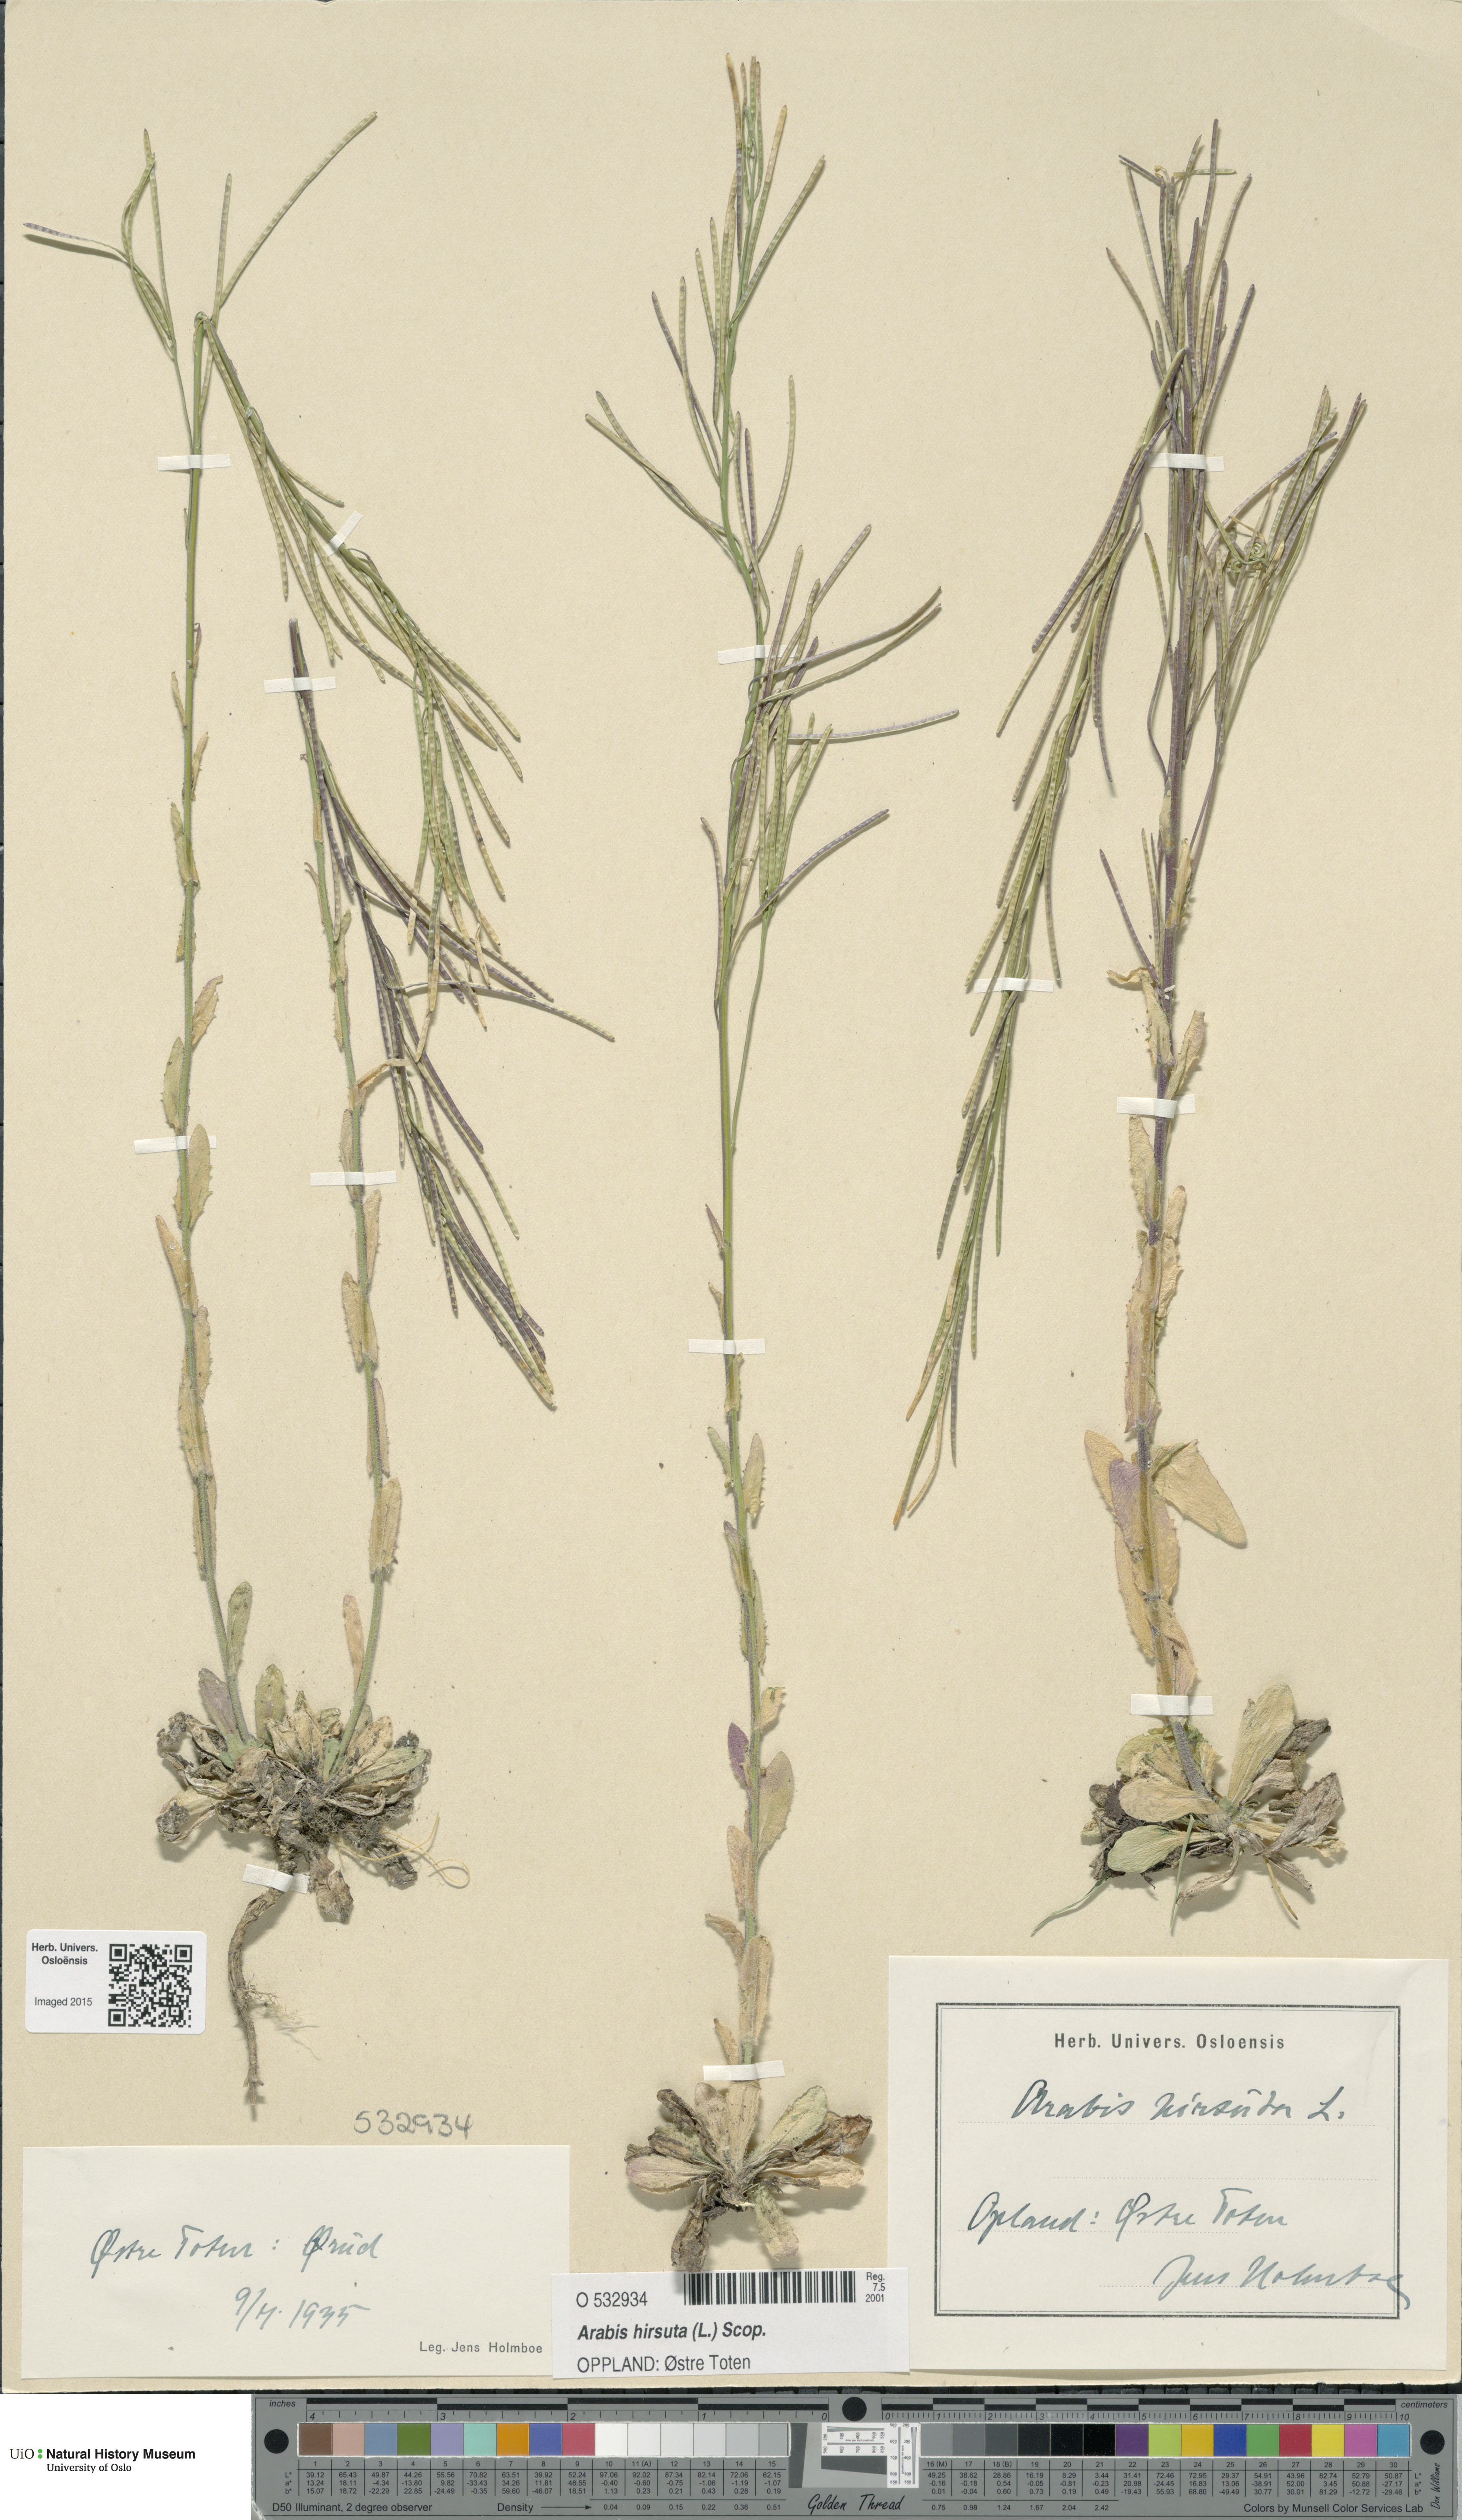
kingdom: Plantae
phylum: Tracheophyta
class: Magnoliopsida
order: Brassicales
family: Brassicaceae
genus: Arabis
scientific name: Arabis hirsuta
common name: Hairy rock-cress
